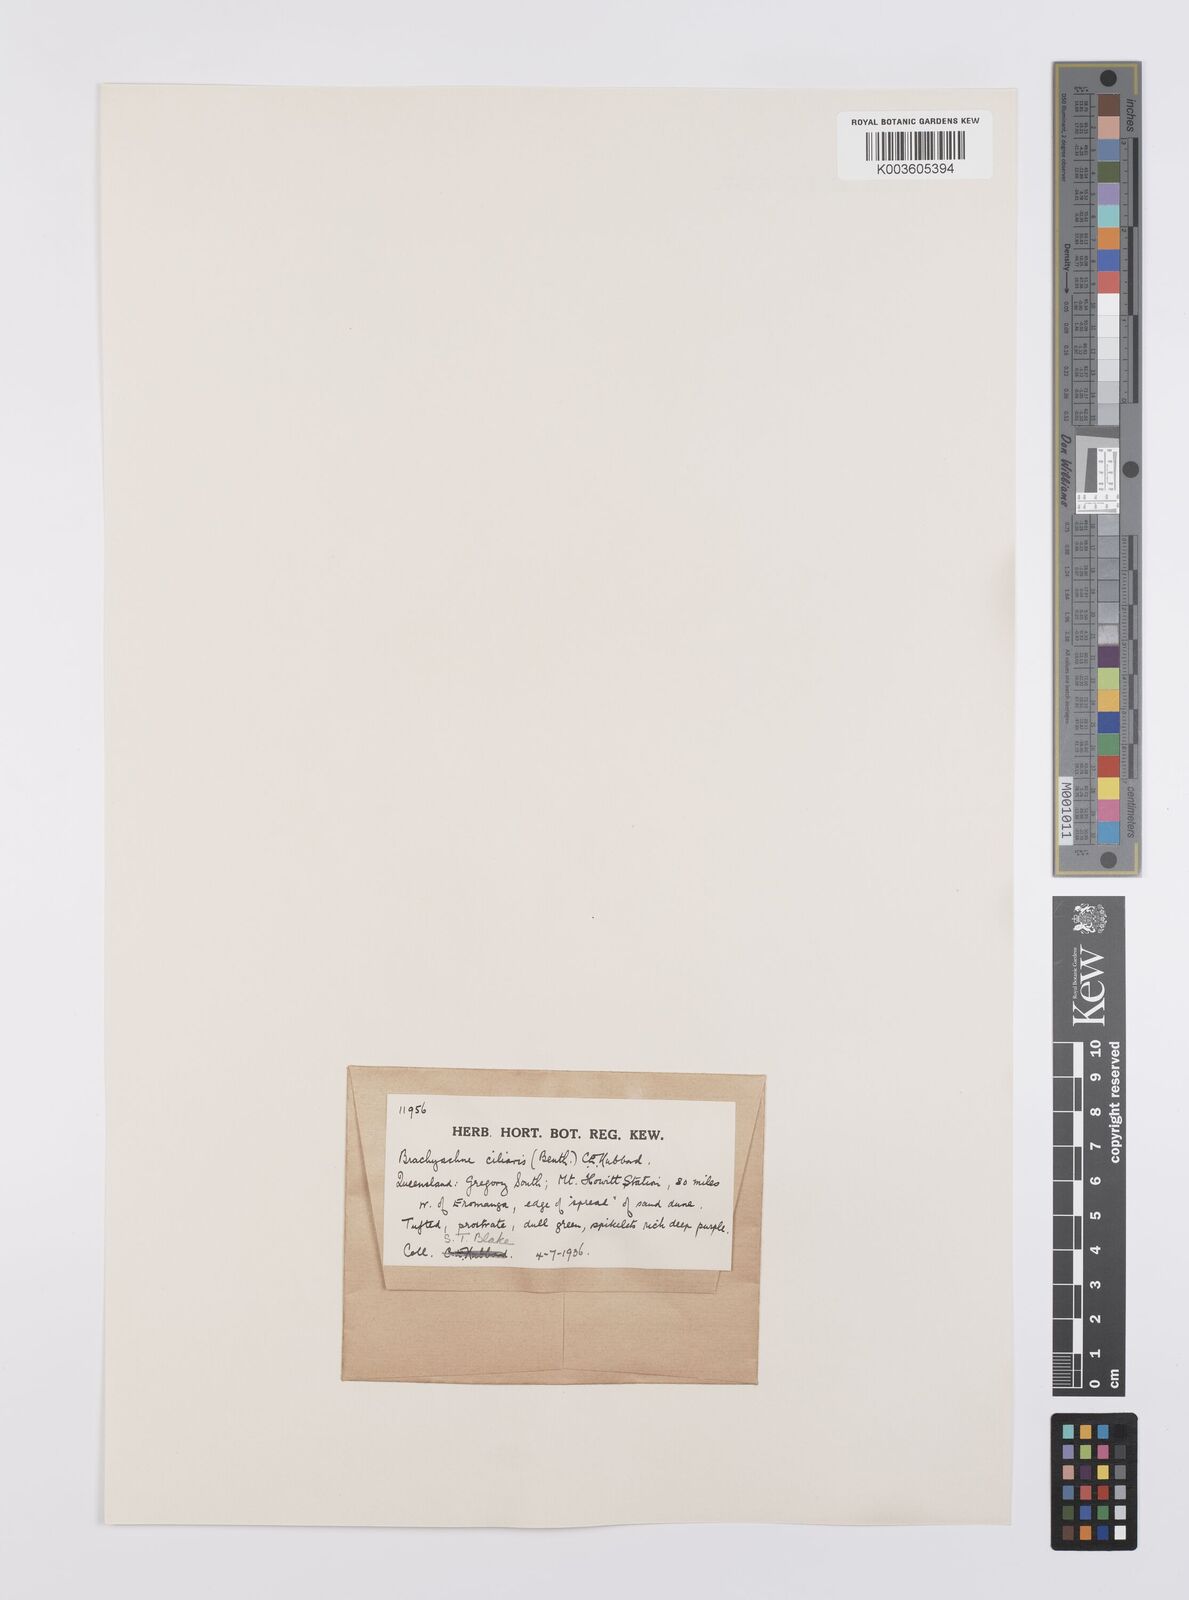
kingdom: Plantae
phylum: Tracheophyta
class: Liliopsida
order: Poales
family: Poaceae
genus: Cynodon
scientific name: Cynodon simonii
